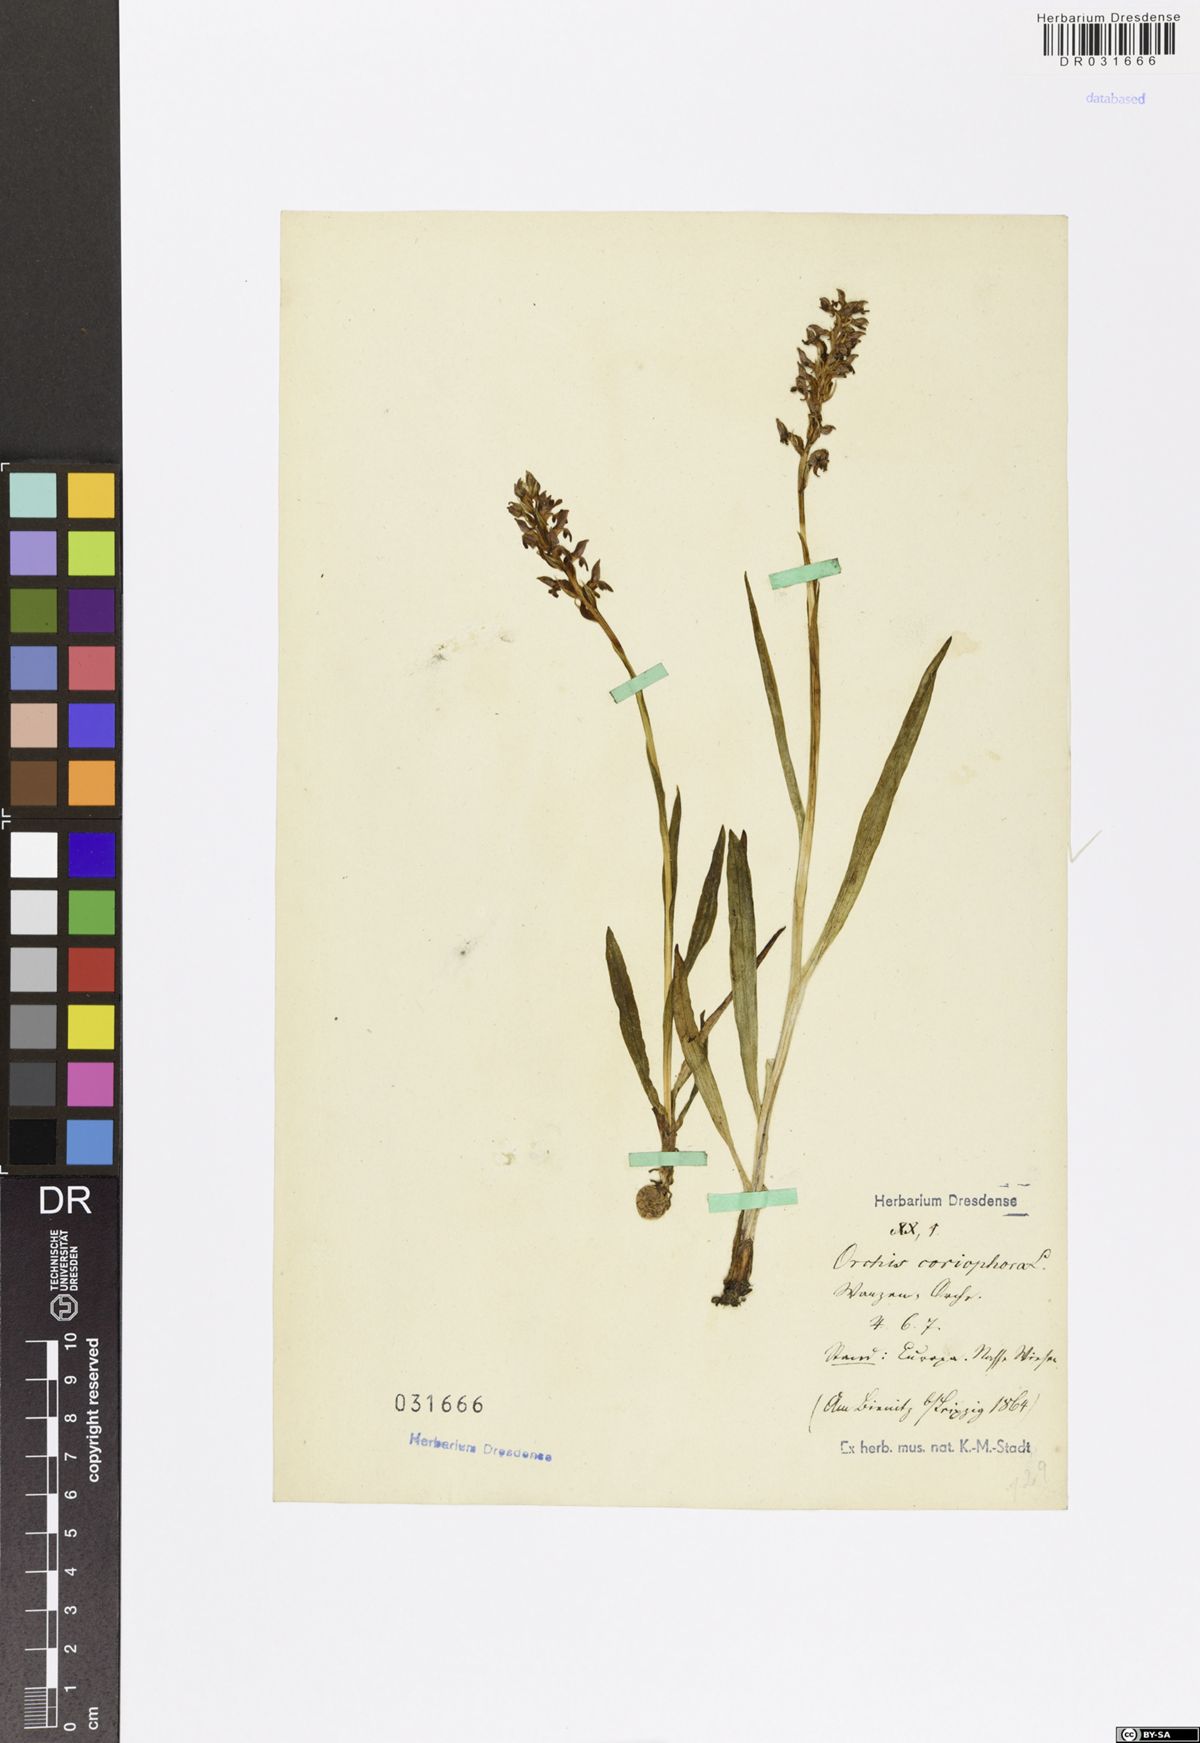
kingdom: Plantae
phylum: Tracheophyta
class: Liliopsida
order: Asparagales
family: Orchidaceae
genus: Anacamptis
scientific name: Anacamptis coriophora
